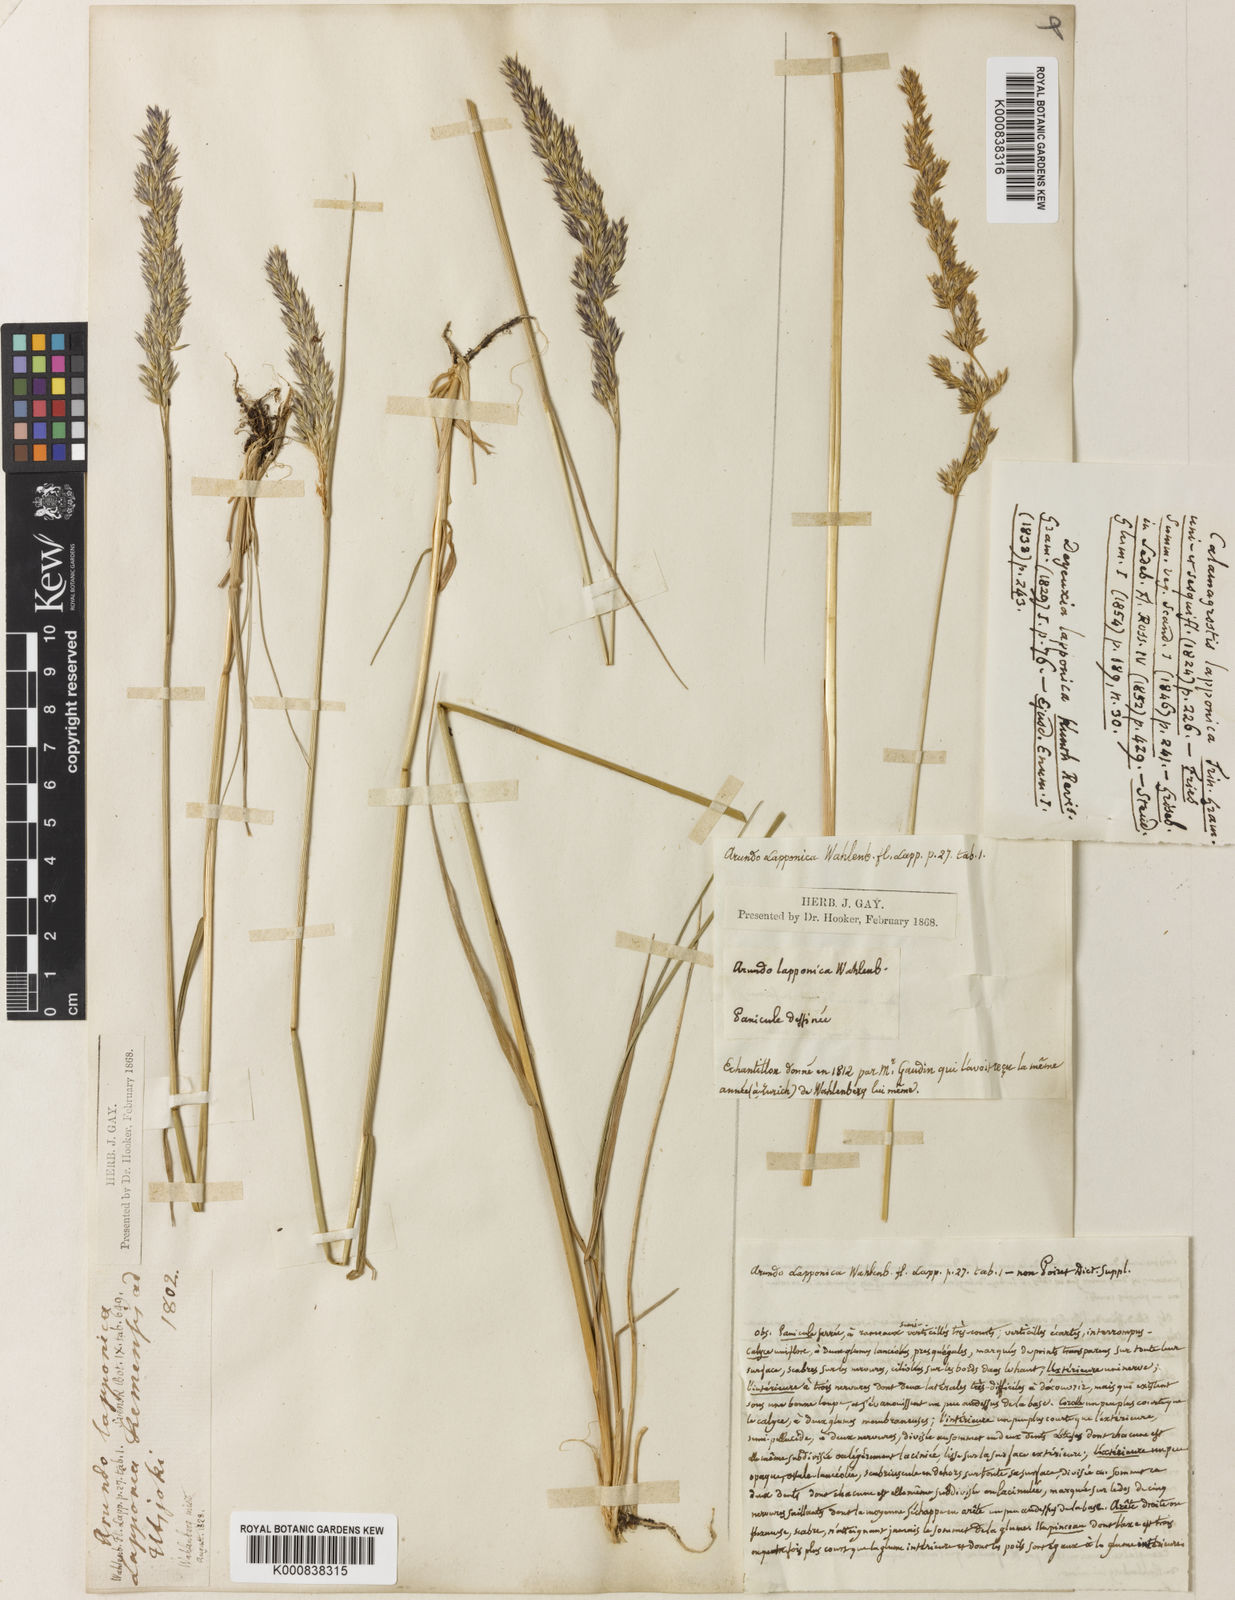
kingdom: Plantae
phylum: Tracheophyta
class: Liliopsida
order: Poales
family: Poaceae
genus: Calamagrostis
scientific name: Calamagrostis lapponica
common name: Lapland reedgrass
